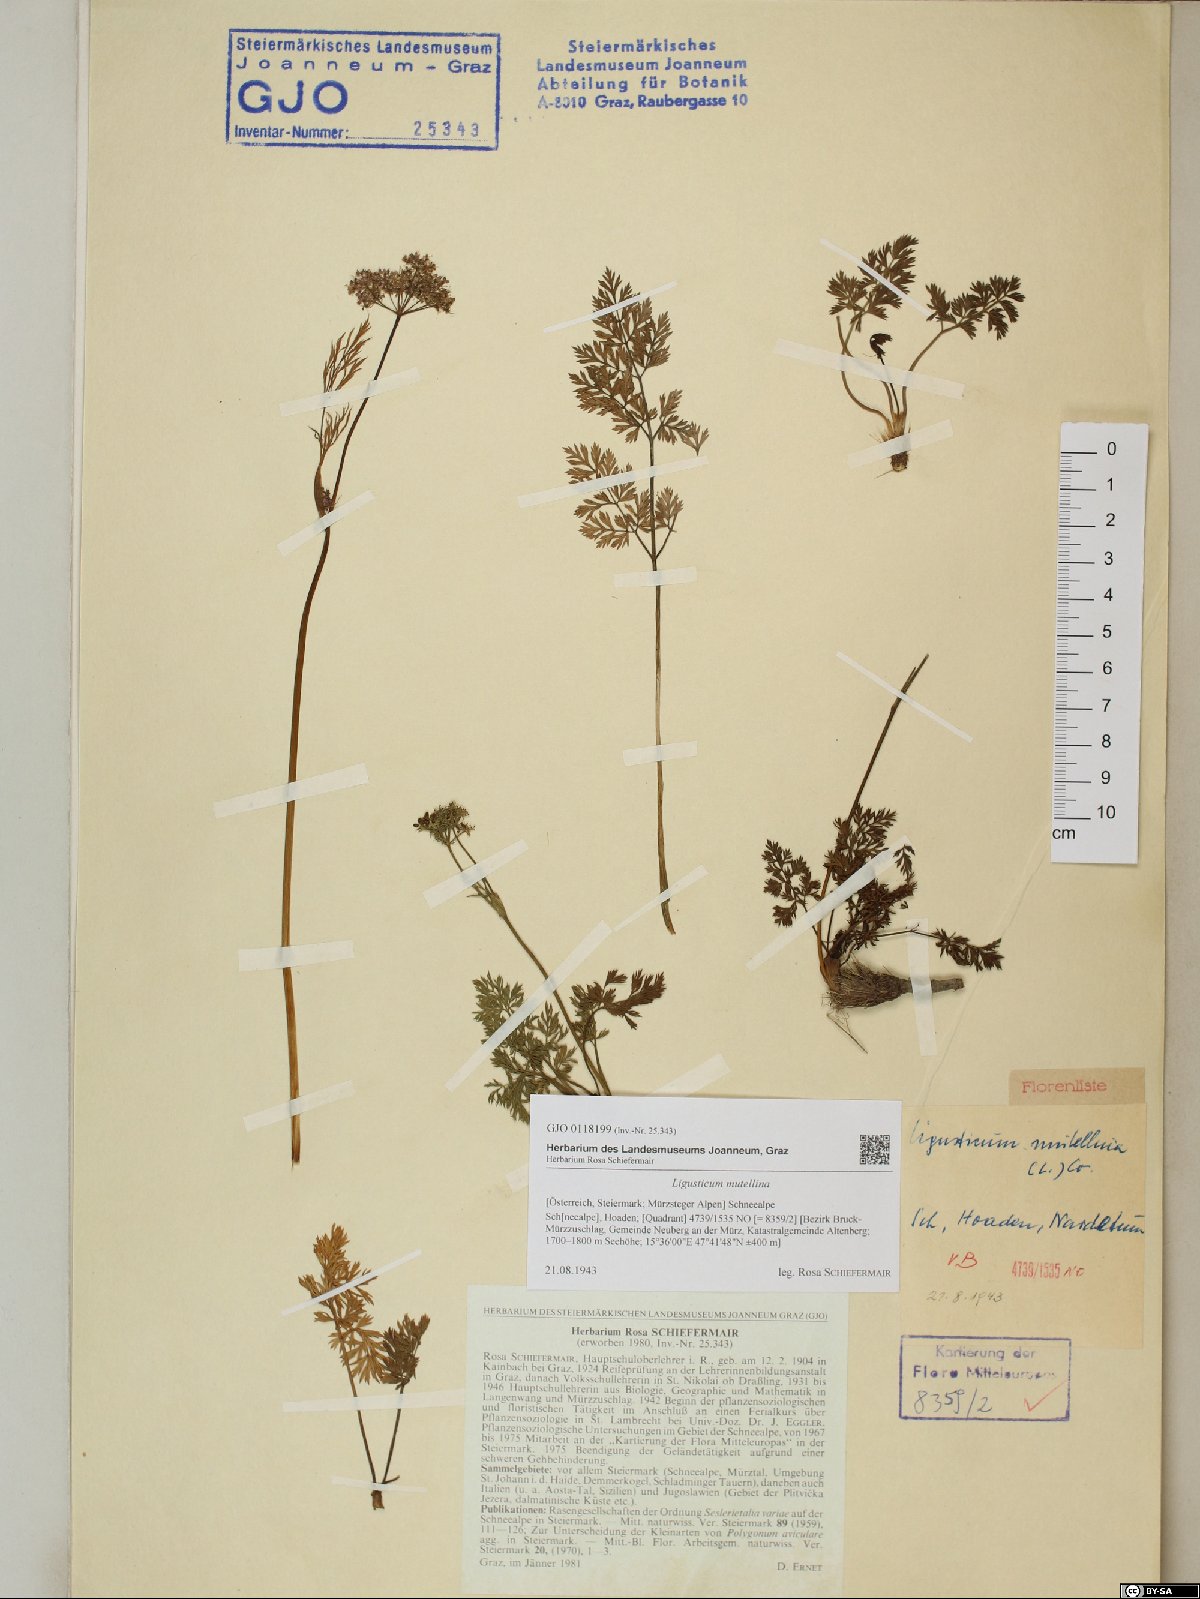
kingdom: Plantae
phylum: Tracheophyta
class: Magnoliopsida
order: Apiales
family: Apiaceae
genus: Mutellina
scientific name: Mutellina adonidifolia
